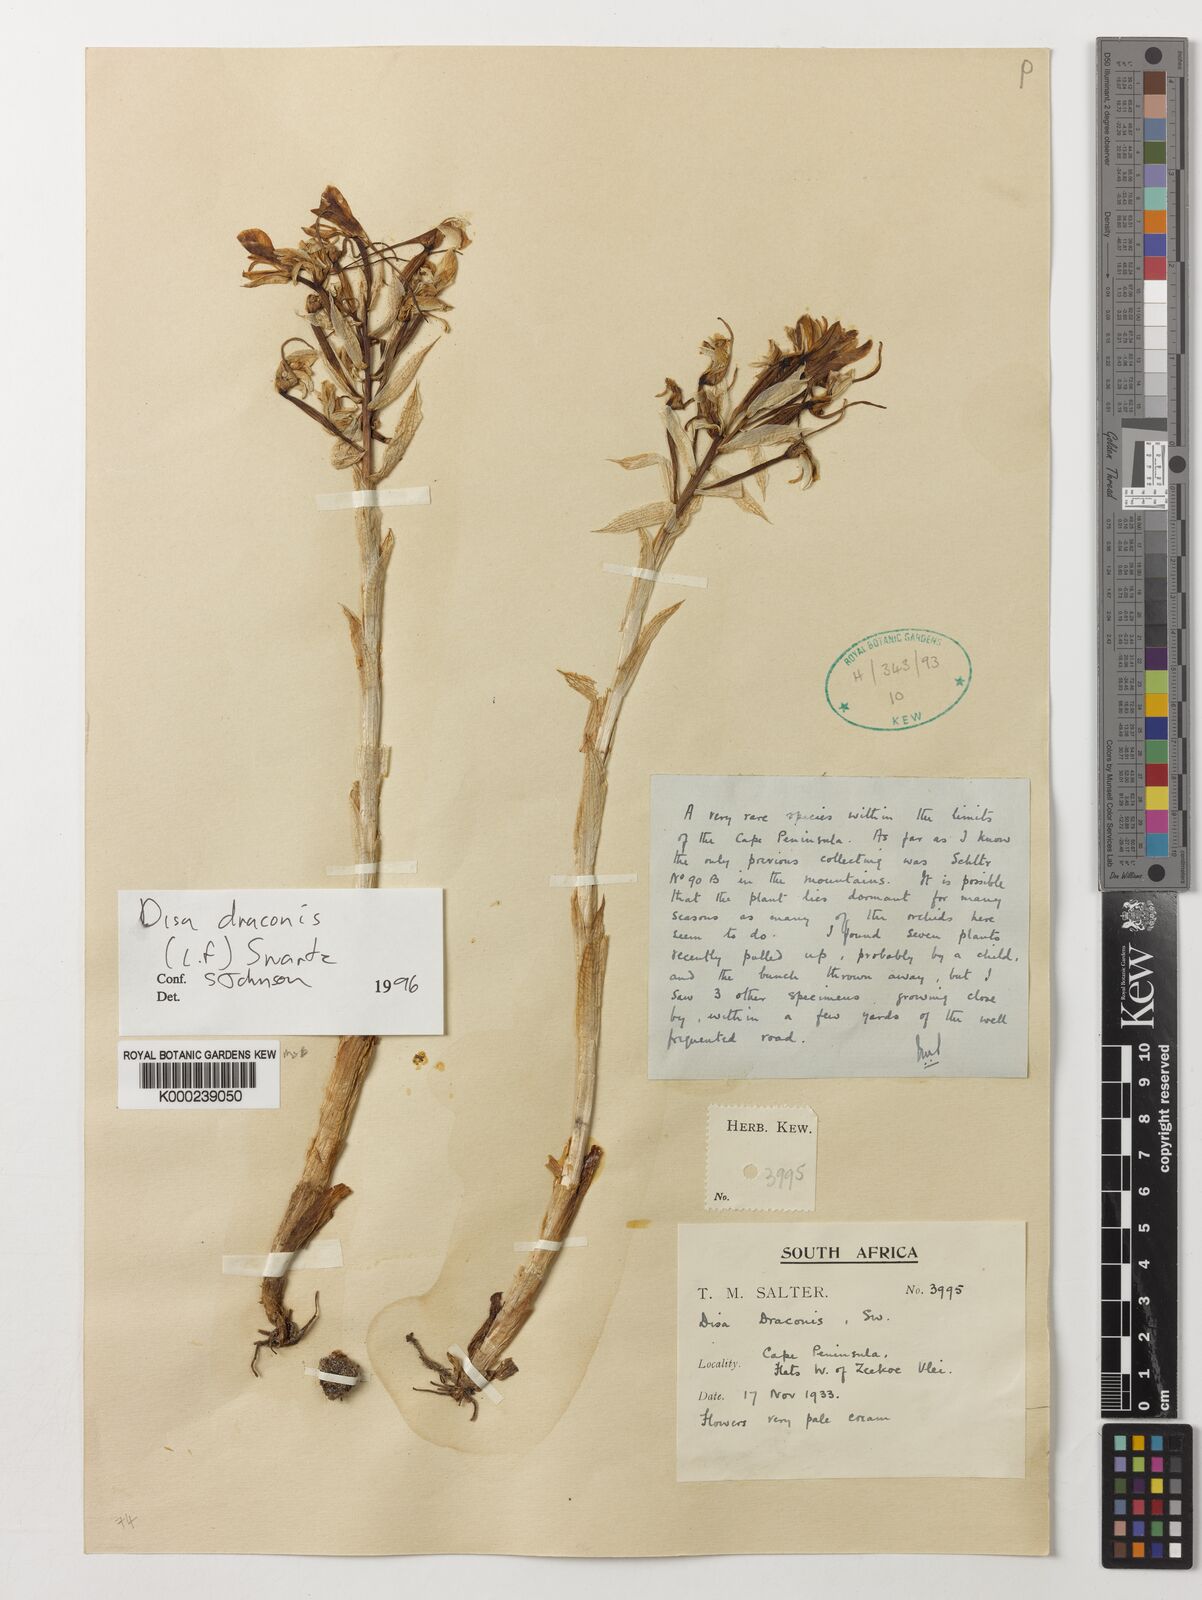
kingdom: Plantae
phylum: Tracheophyta
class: Liliopsida
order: Asparagales
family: Orchidaceae
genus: Disa
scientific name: Disa draconis
